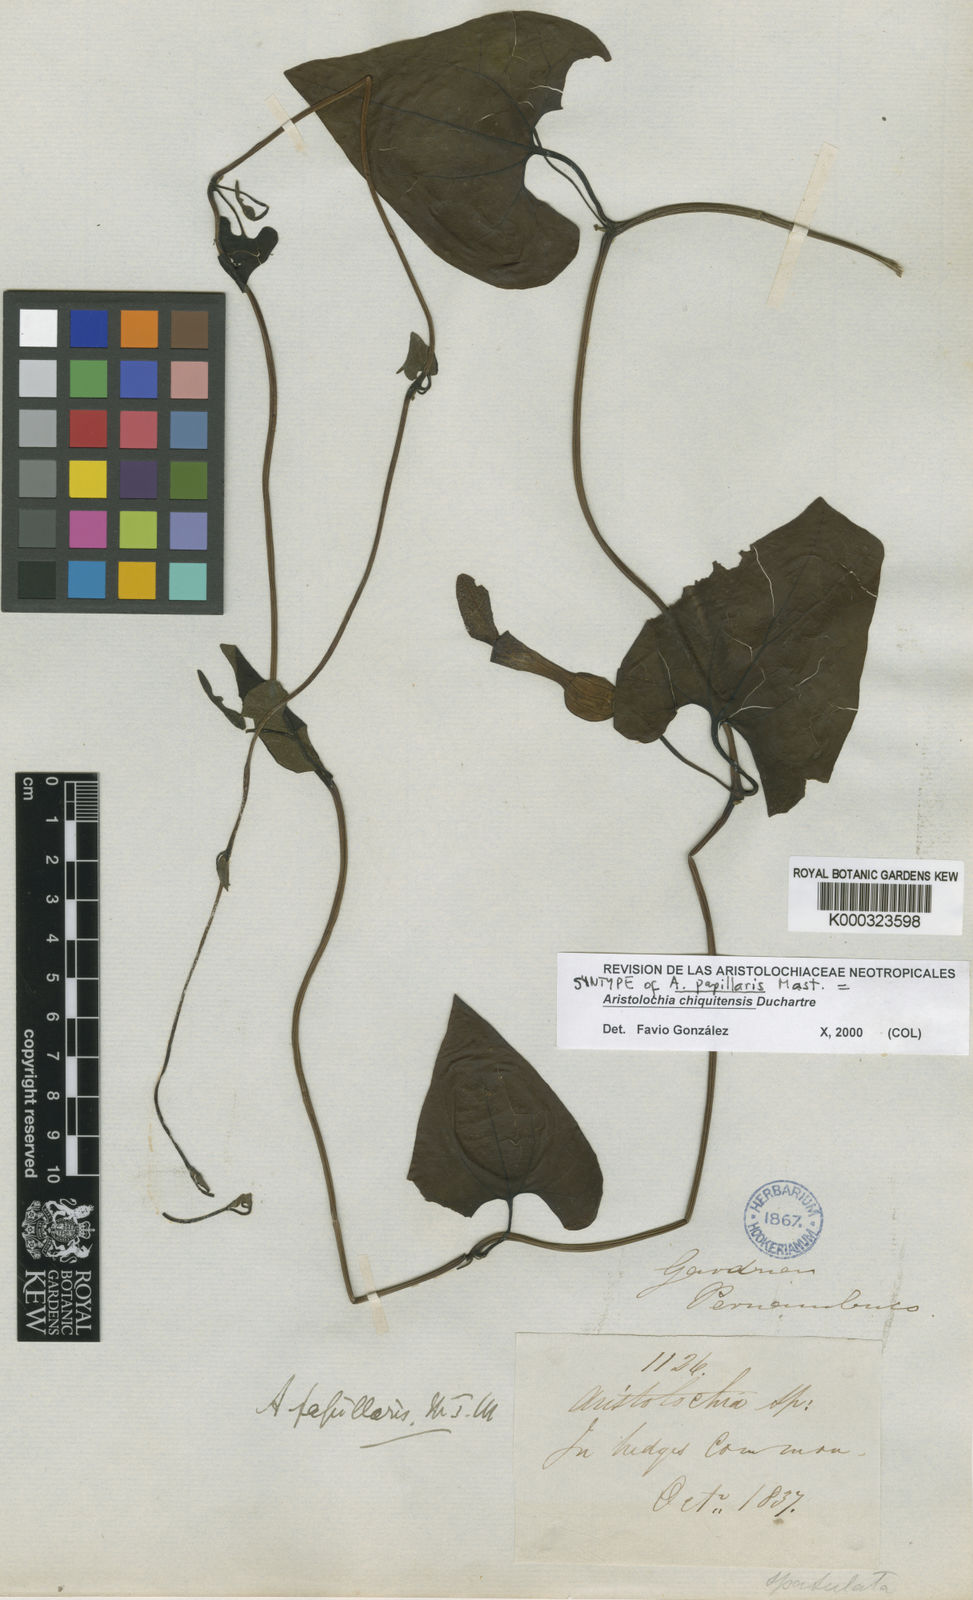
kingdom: Plantae
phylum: Tracheophyta
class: Magnoliopsida
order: Piperales
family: Aristolochiaceae
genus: Aristolochia
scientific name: Aristolochia chiquitensis
